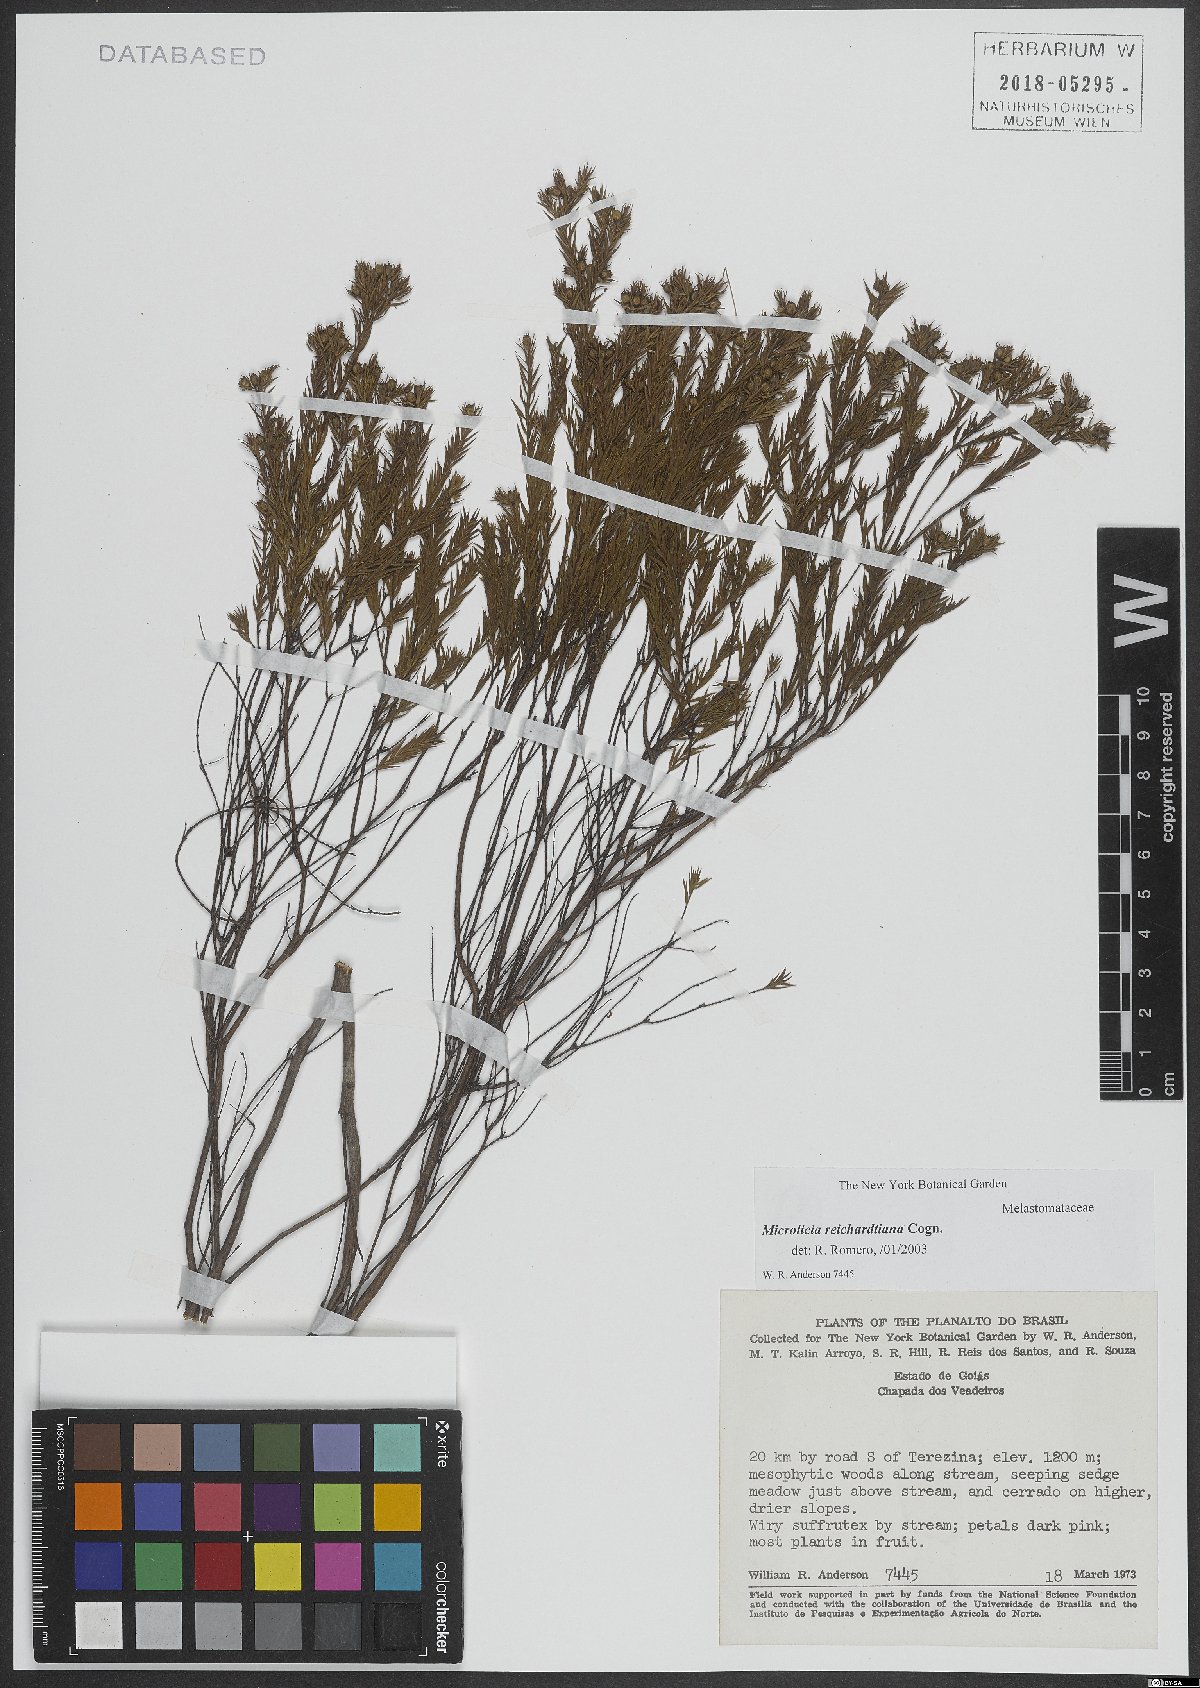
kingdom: Plantae
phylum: Tracheophyta
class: Magnoliopsida
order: Myrtales
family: Melastomataceae
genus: Microlicia
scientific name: Microlicia setosa
